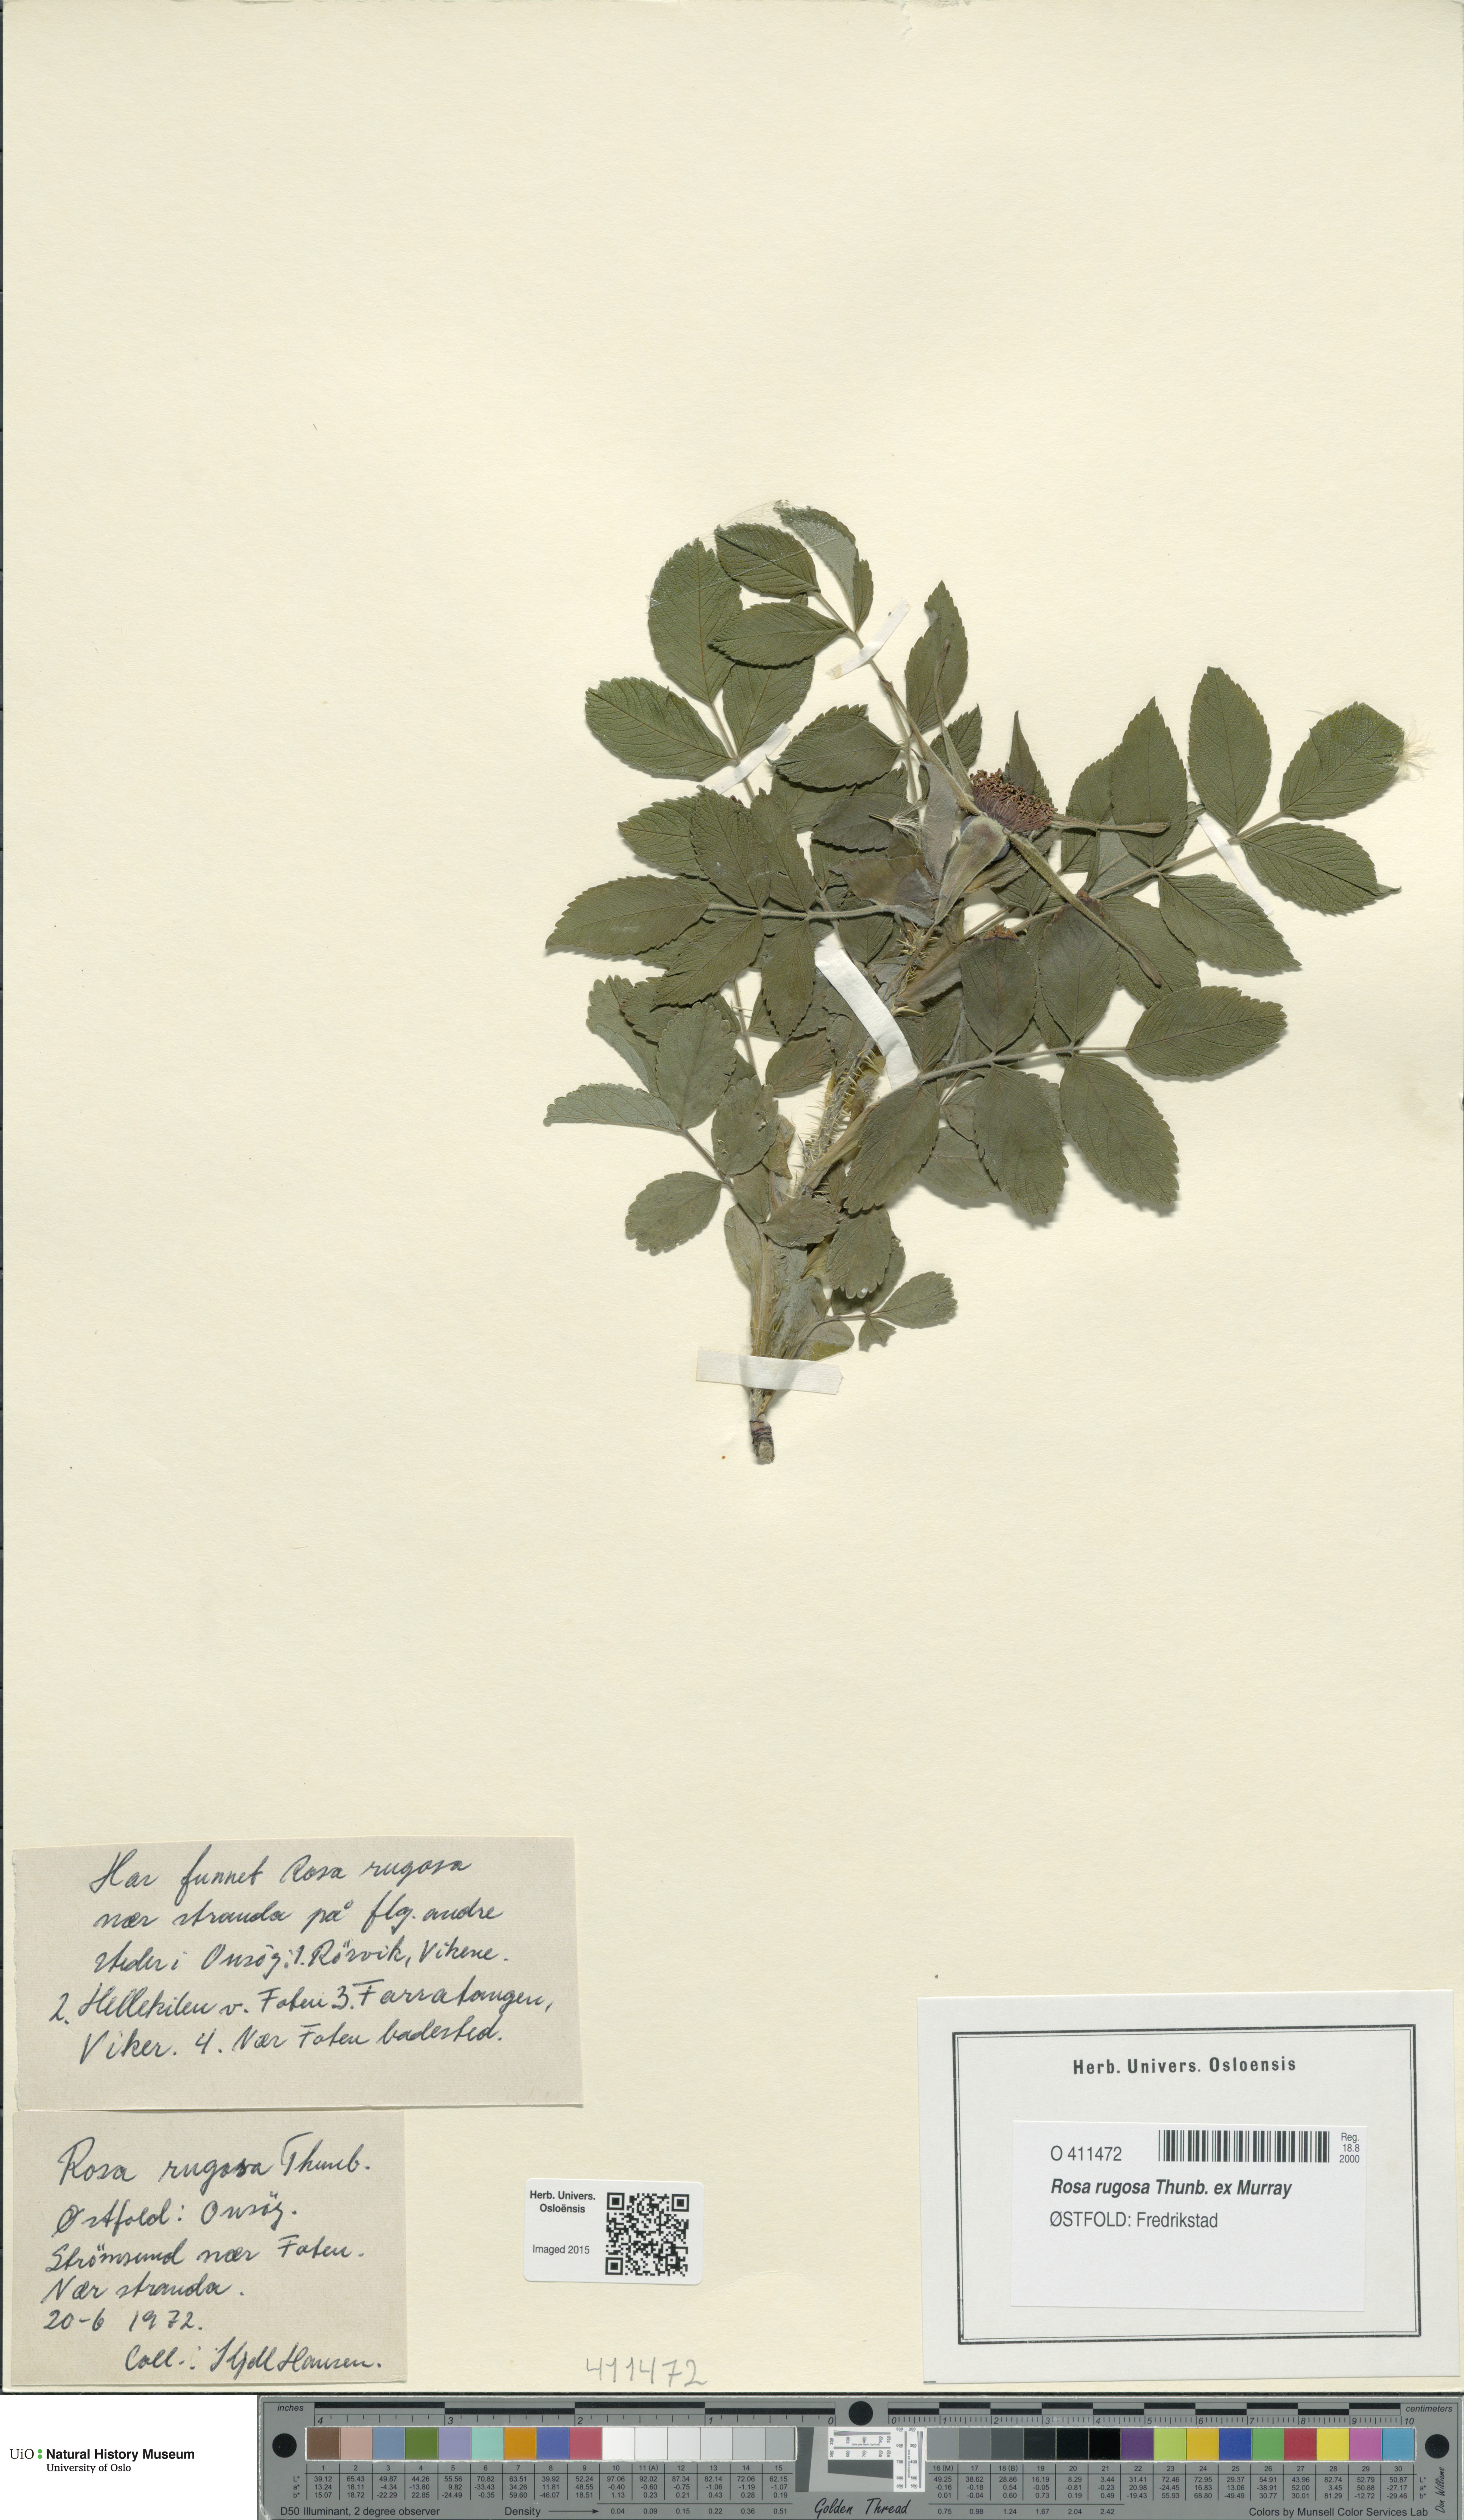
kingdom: Plantae
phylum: Tracheophyta
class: Magnoliopsida
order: Rosales
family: Rosaceae
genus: Rosa
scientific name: Rosa rugosa
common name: Japanese rose
